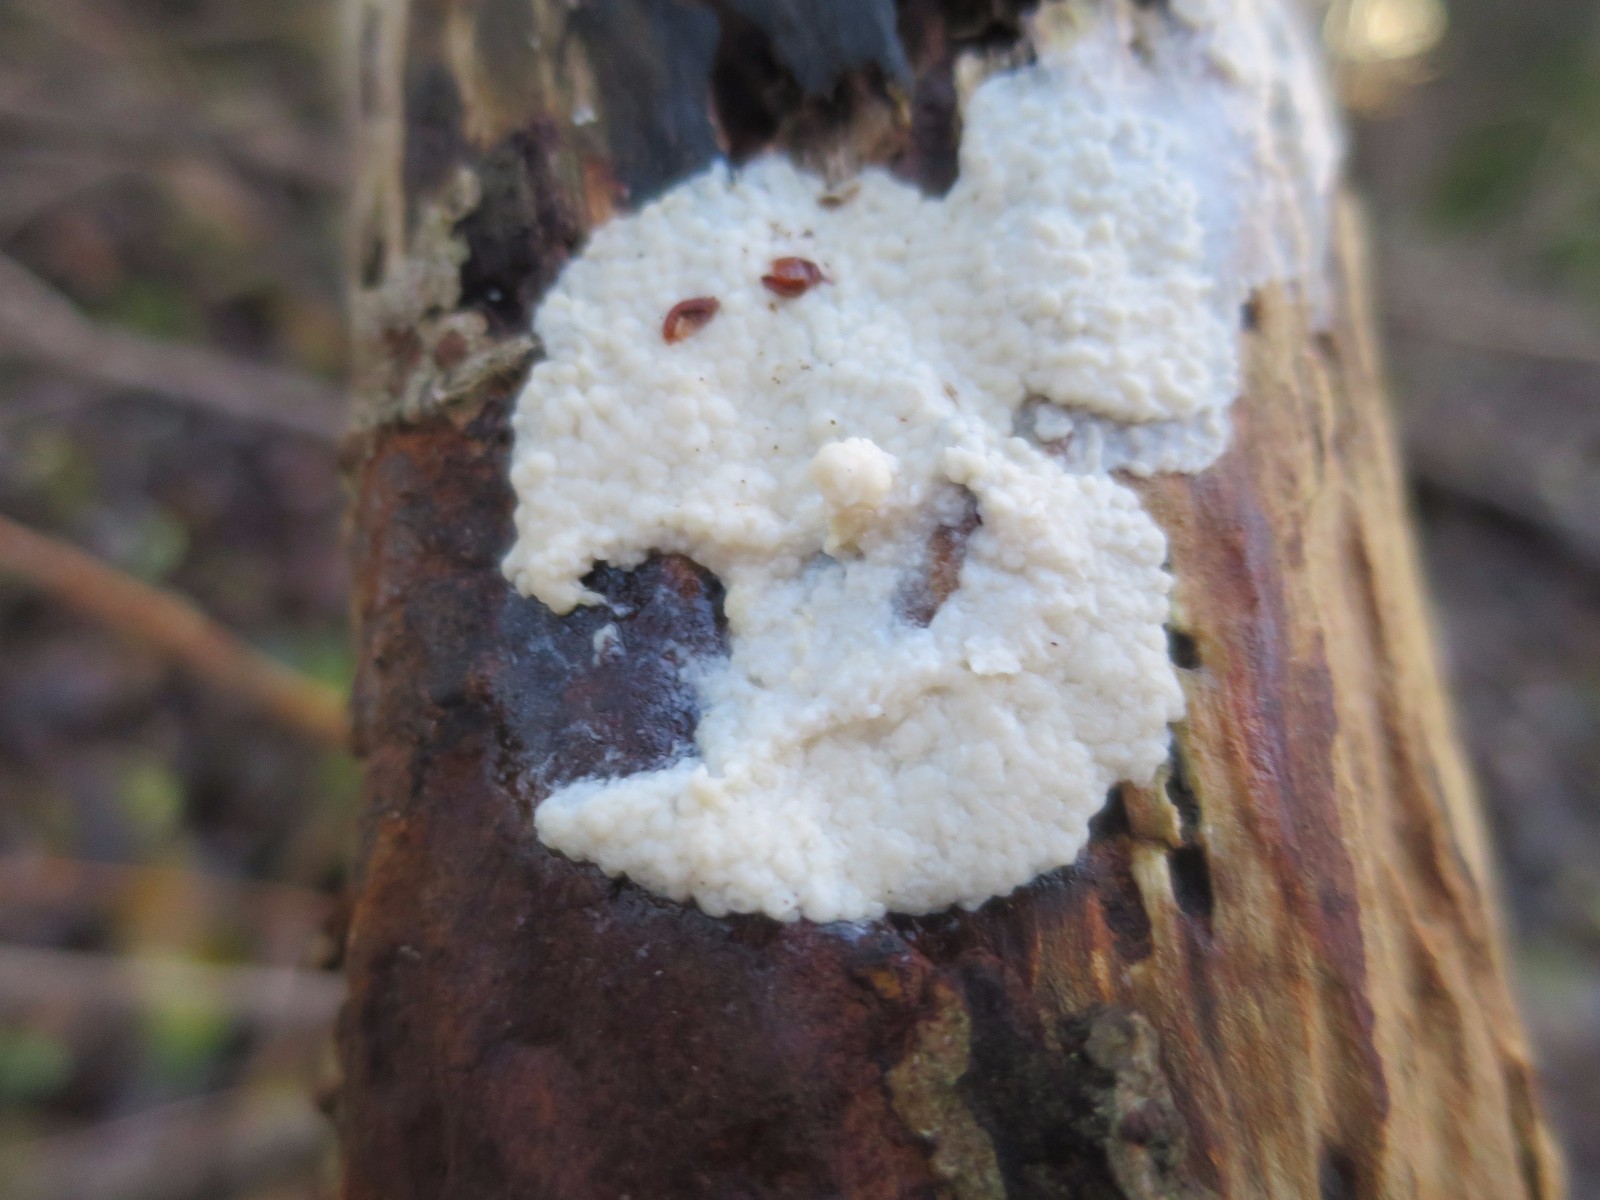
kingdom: Protozoa
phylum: Mycetozoa
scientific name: Mycetozoa
